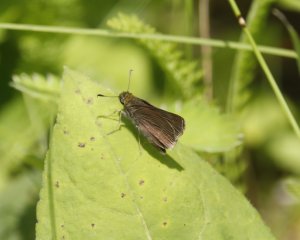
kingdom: Animalia
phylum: Arthropoda
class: Insecta
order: Lepidoptera
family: Hesperiidae
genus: Euphyes
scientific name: Euphyes vestris
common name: Dun Skipper
